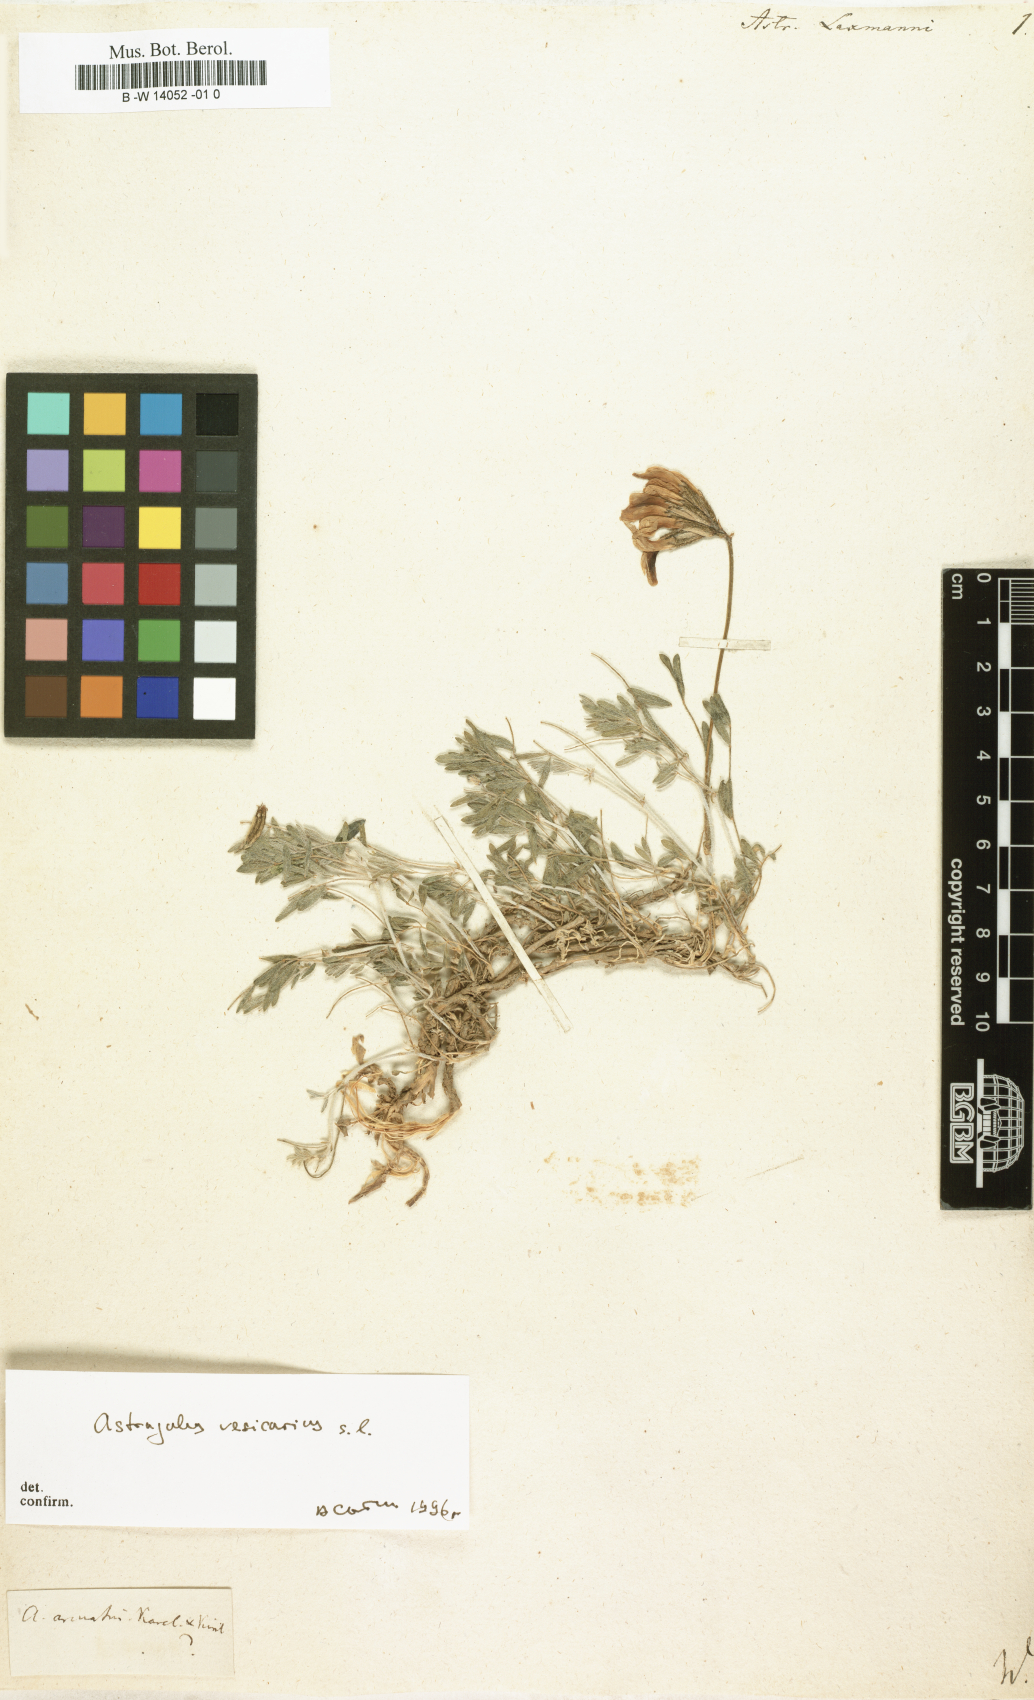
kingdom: Plantae
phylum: Tracheophyta
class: Magnoliopsida
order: Fabales
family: Fabaceae
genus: Astragalus
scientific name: Astragalus laxmannii
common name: Laxmann's milk-vetch
